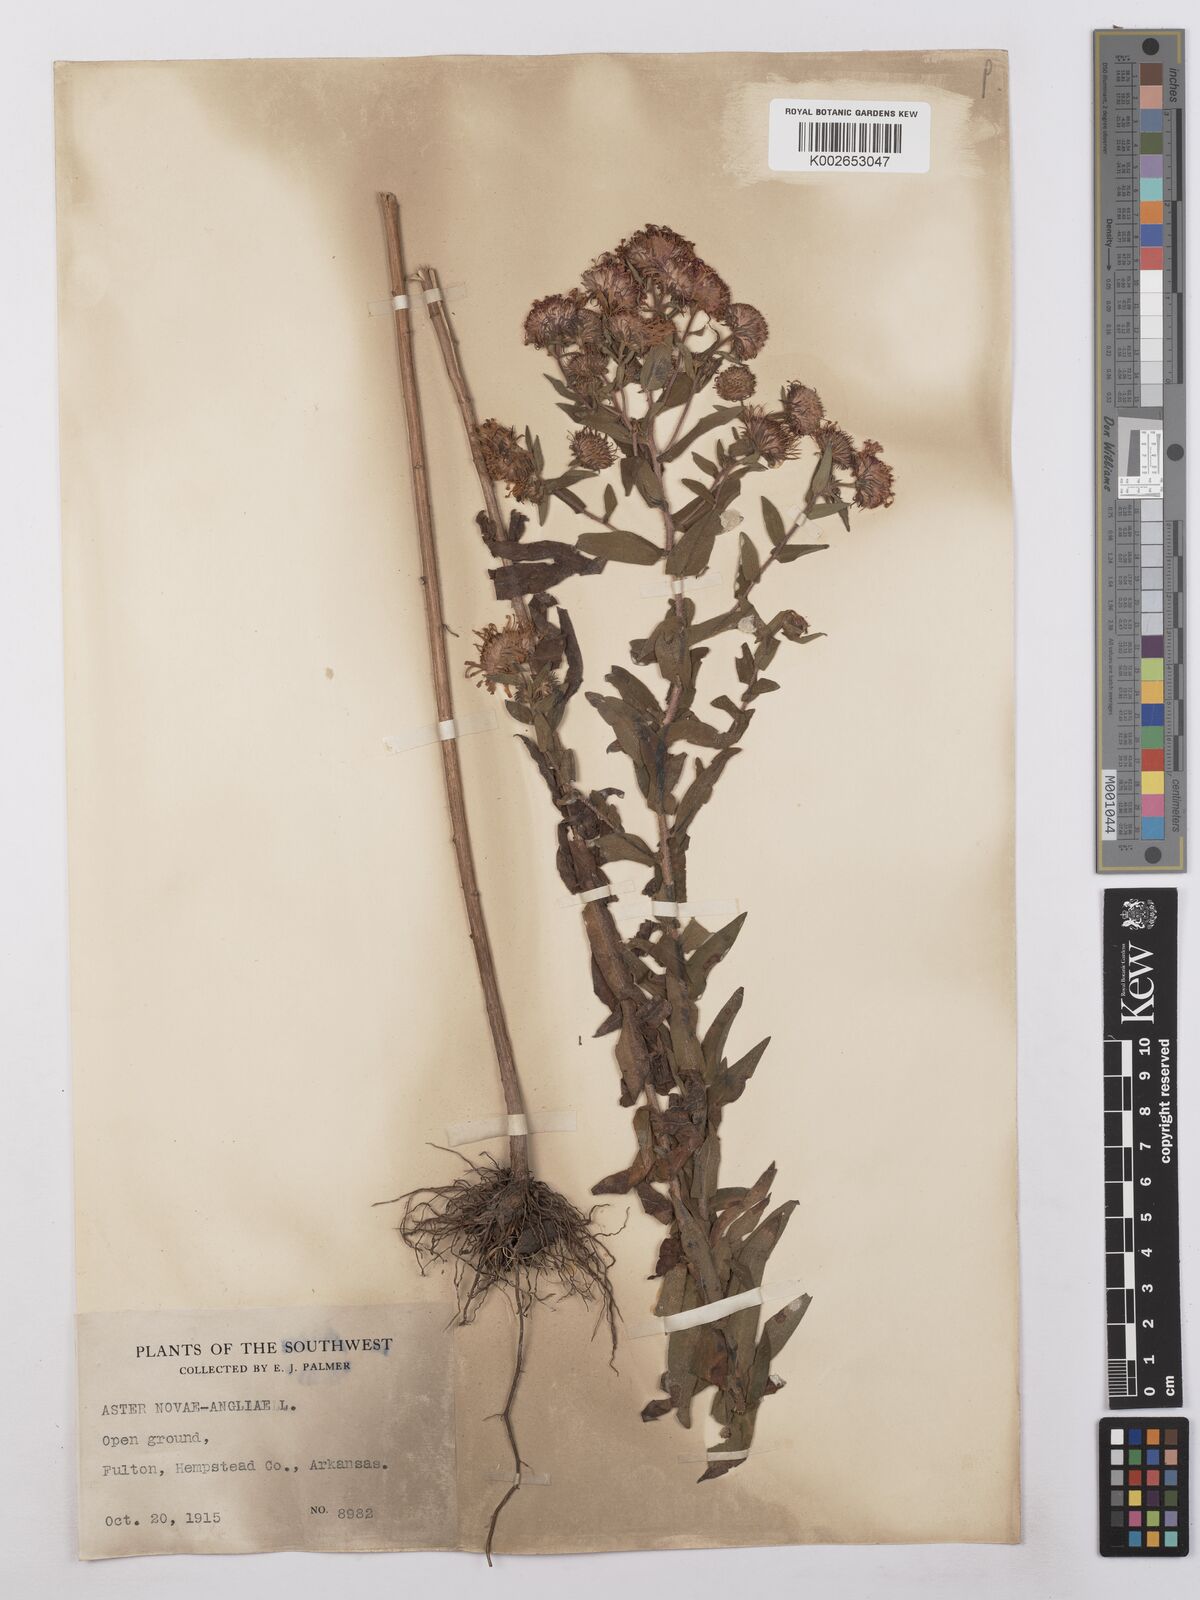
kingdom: Plantae
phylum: Tracheophyta
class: Magnoliopsida
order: Asterales
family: Asteraceae
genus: Symphyotrichum
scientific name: Symphyotrichum novae-angliae
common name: Michaelmas daisy
